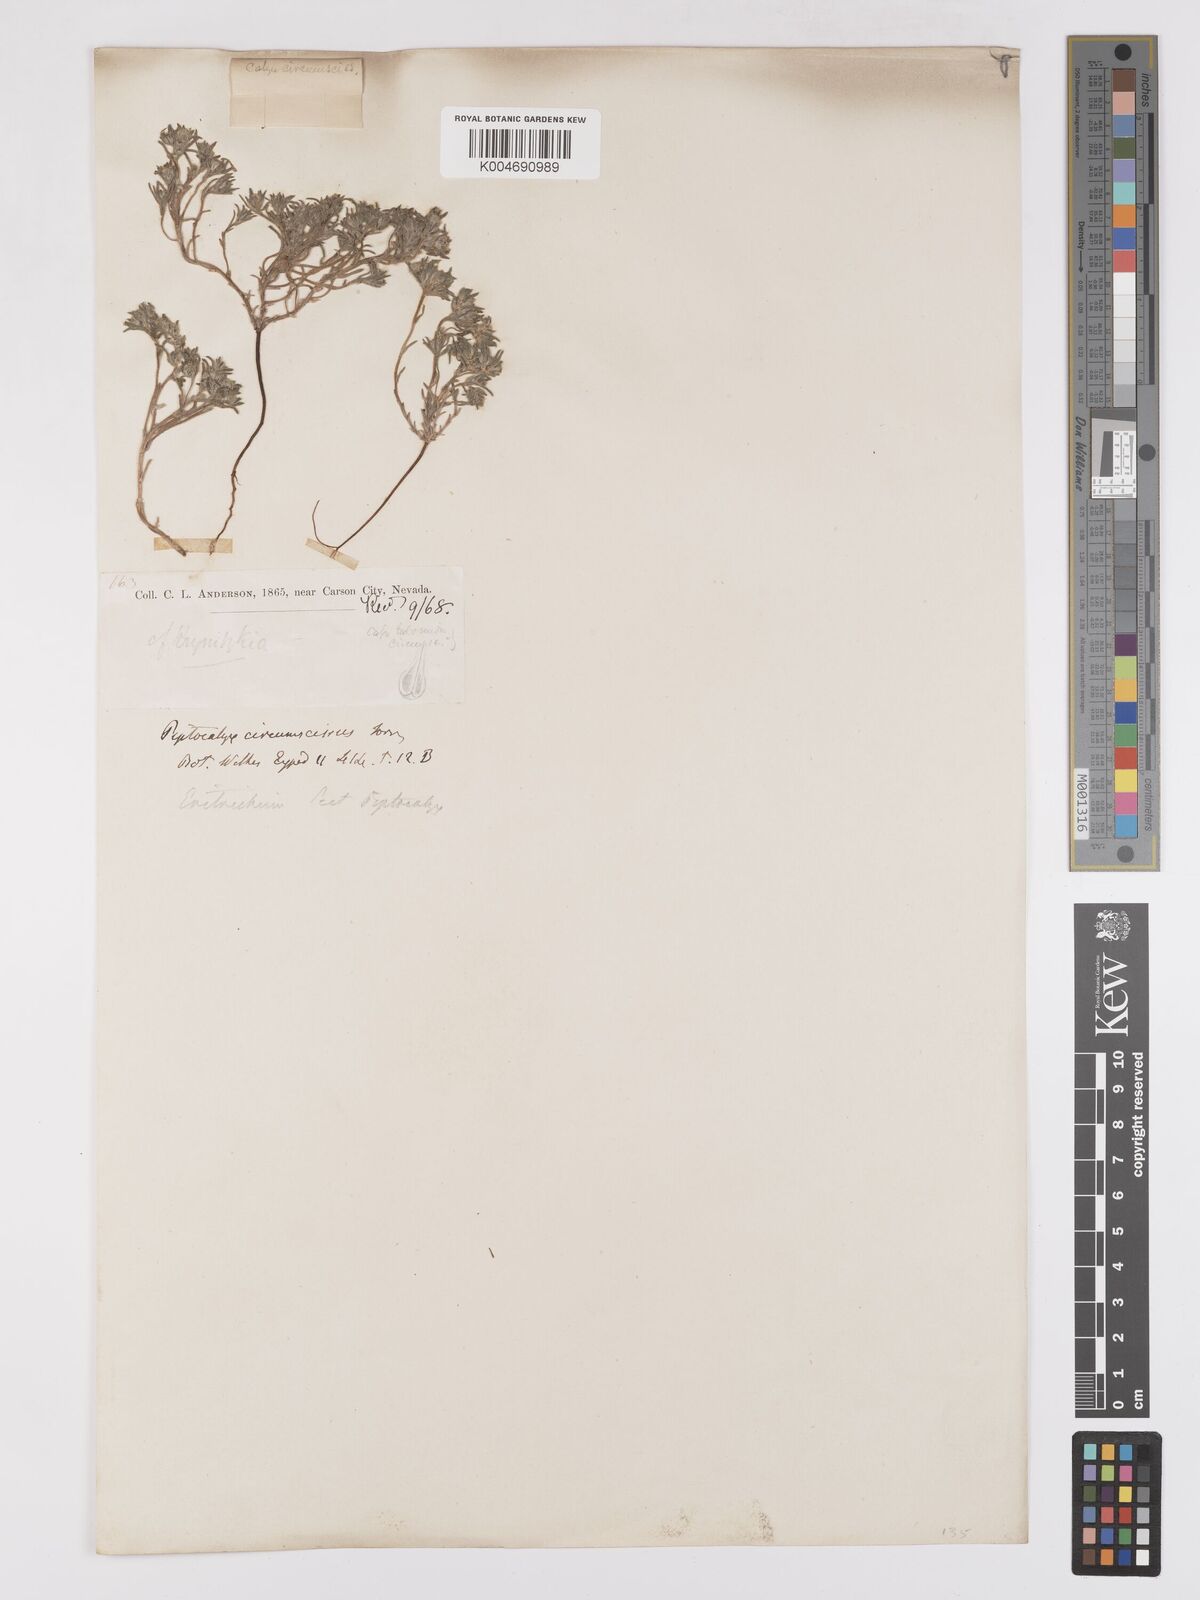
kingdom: Plantae
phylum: Tracheophyta
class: Magnoliopsida
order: Boraginales
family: Boraginaceae
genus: Greeneocharis
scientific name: Greeneocharis circumscissa
